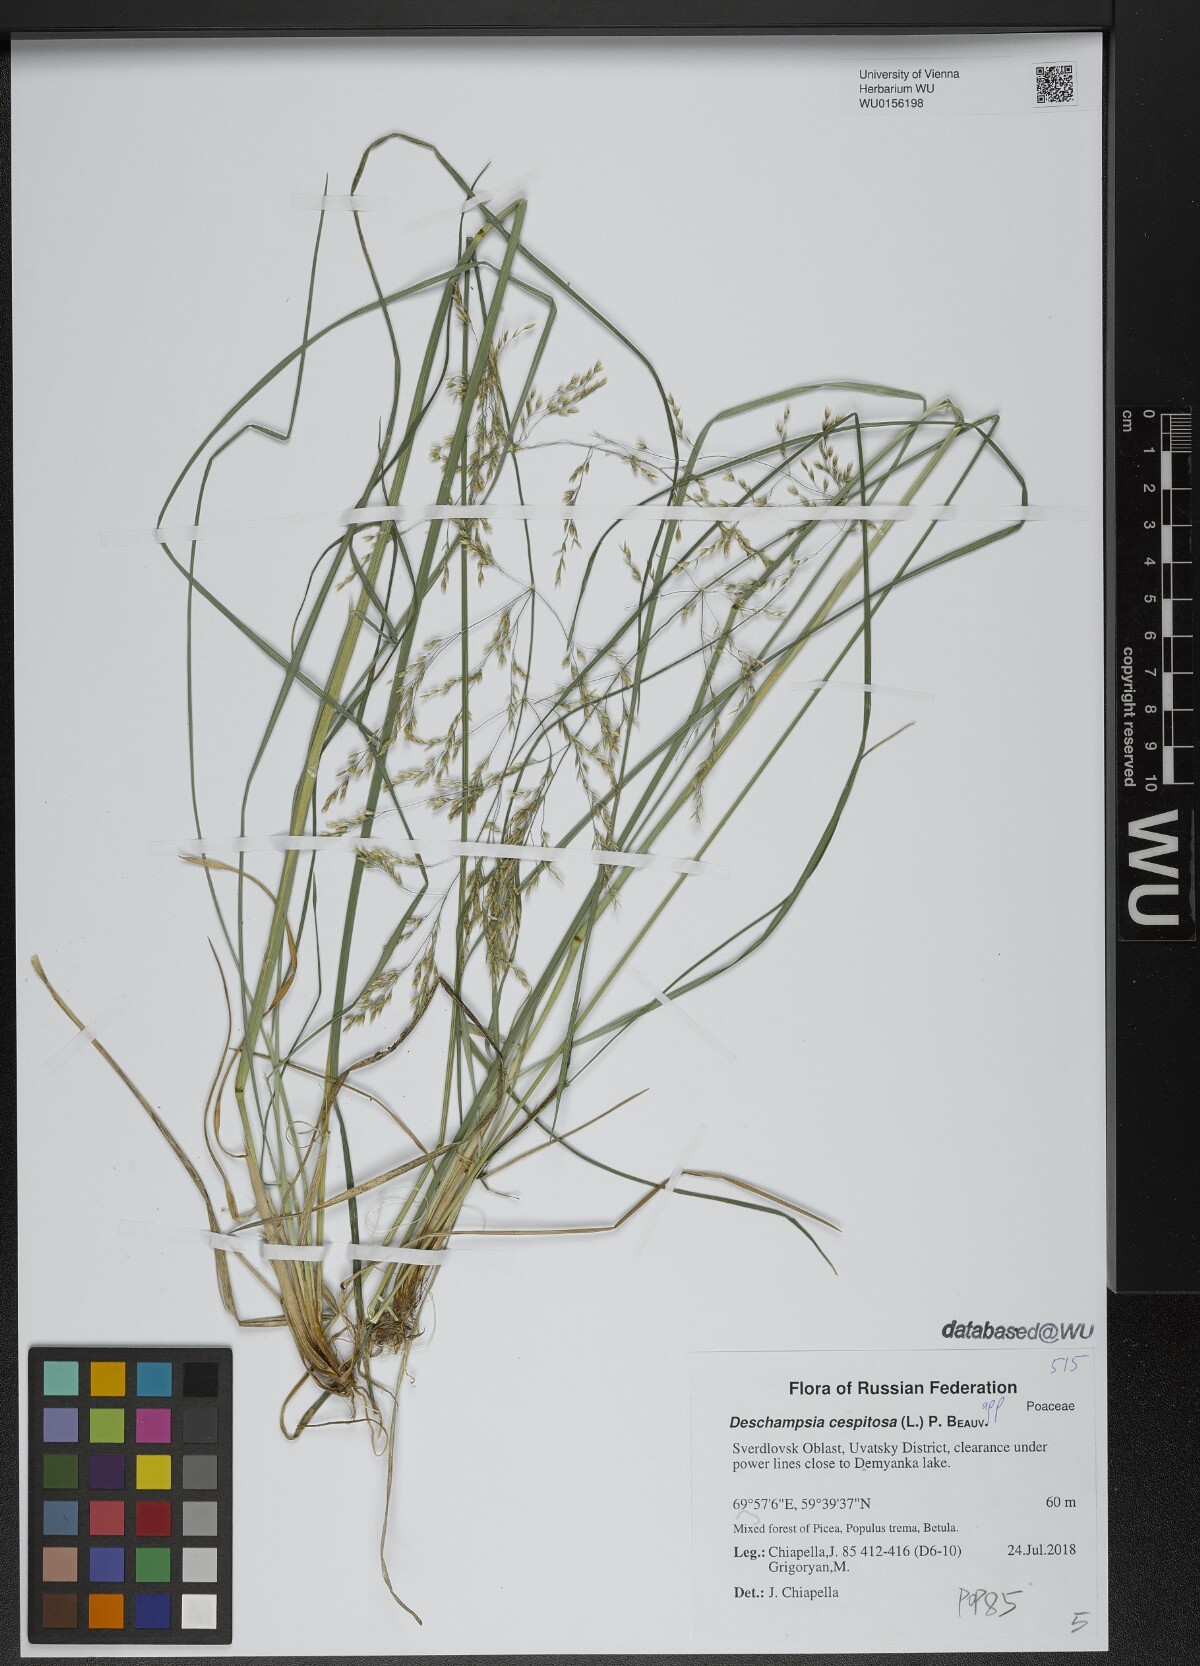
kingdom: Plantae
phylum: Tracheophyta
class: Liliopsida
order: Poales
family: Poaceae
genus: Deschampsia
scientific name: Deschampsia cespitosa
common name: Tufted hair-grass
